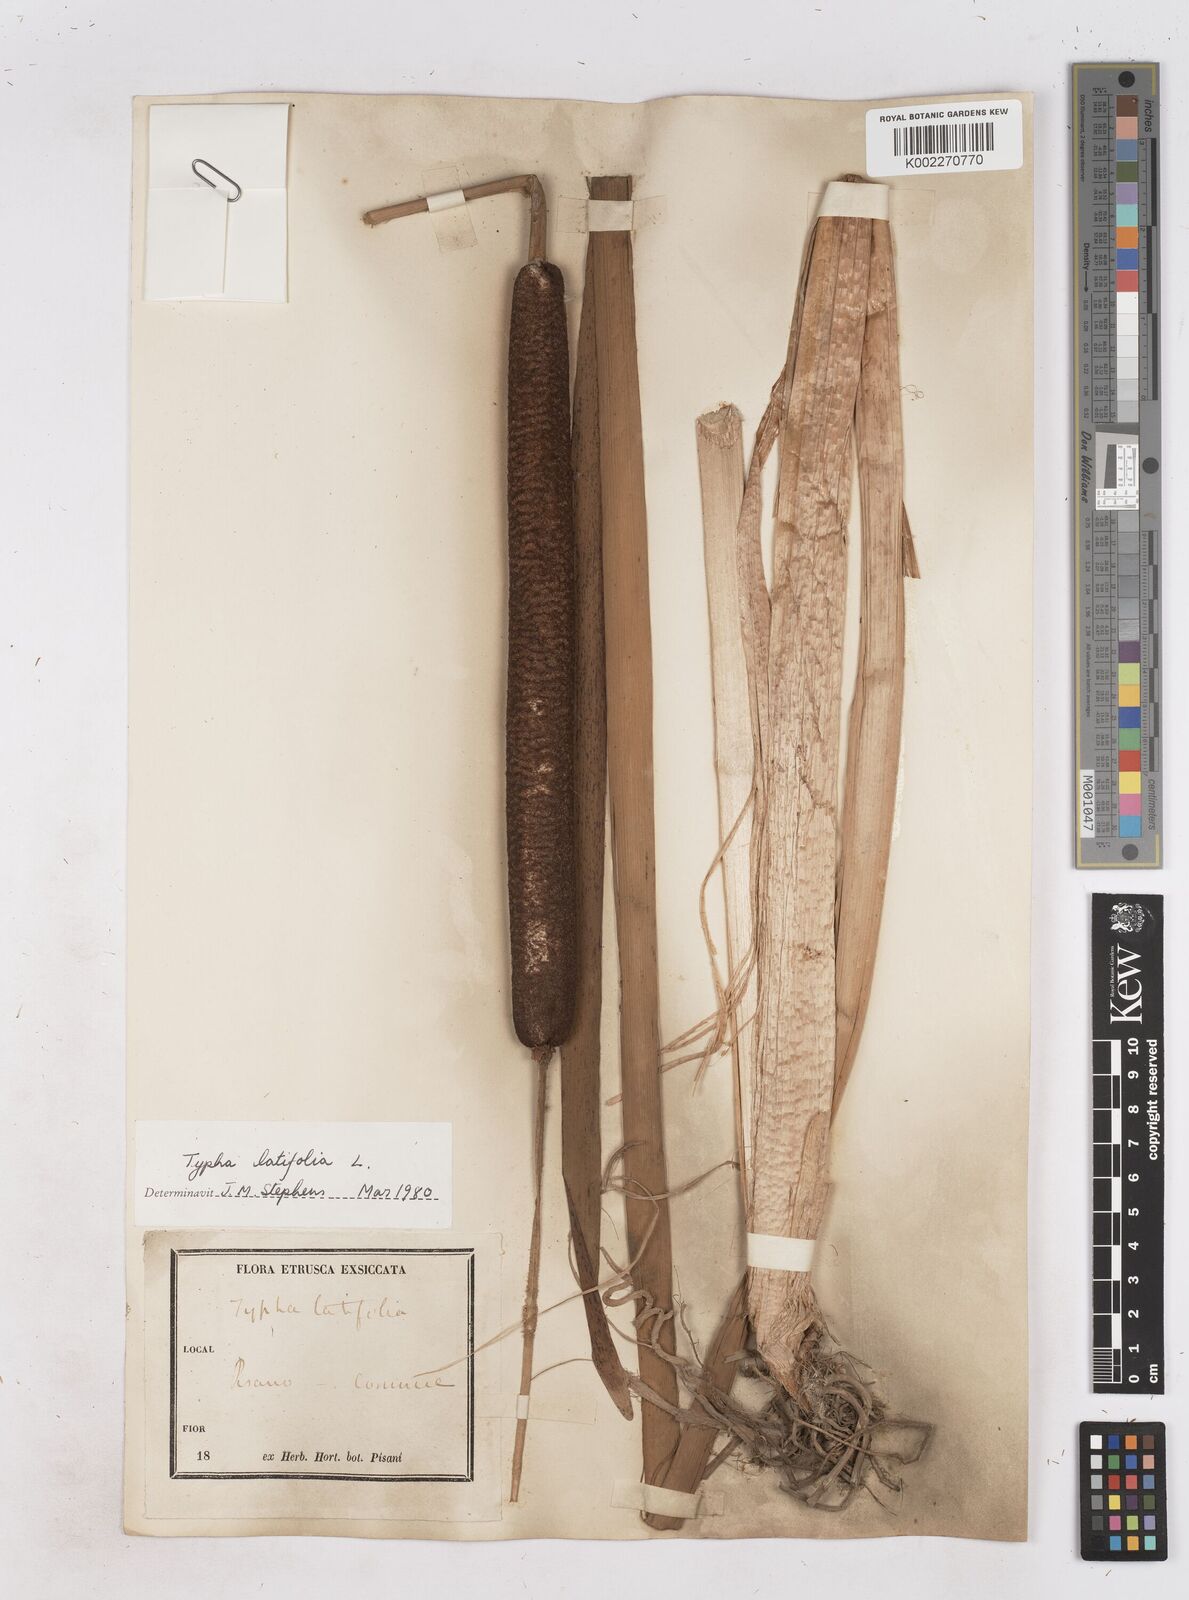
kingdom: Plantae
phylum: Tracheophyta
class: Liliopsida
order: Poales
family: Typhaceae
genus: Typha
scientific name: Typha latifolia
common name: Broadleaf cattail
